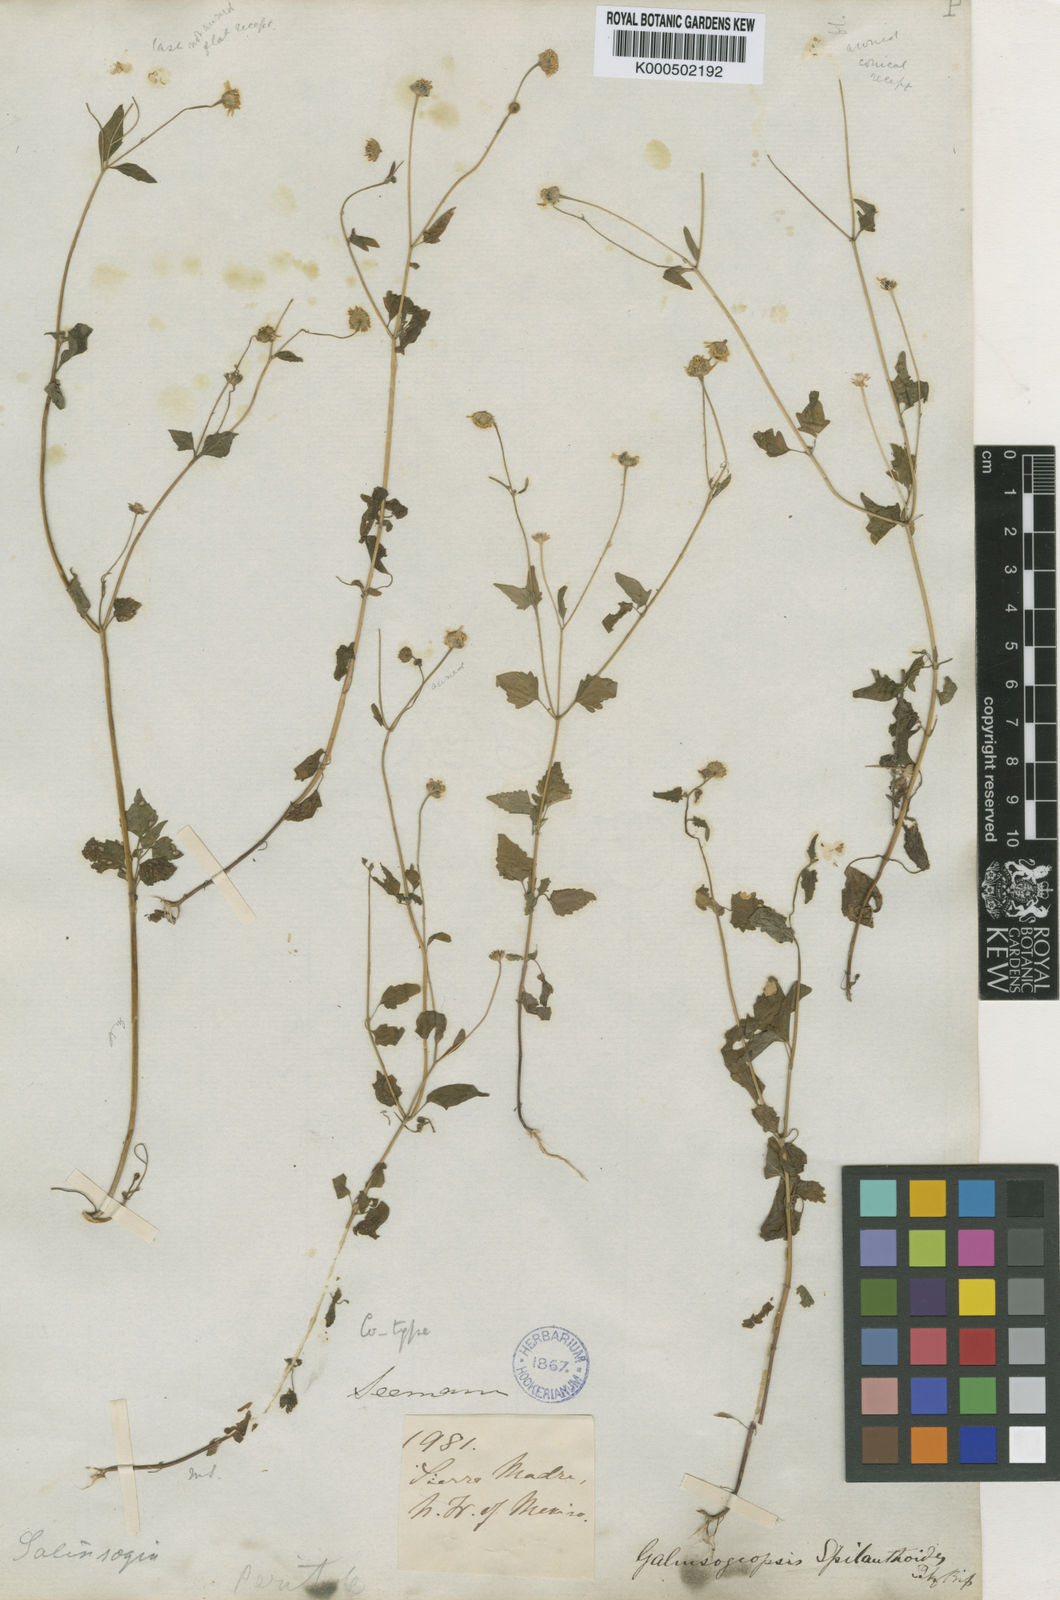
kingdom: Plantae
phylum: Tracheophyta
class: Magnoliopsida
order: Asterales
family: Asteraceae
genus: Galinsogeopsis
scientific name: Galinsogeopsis spilanthoides
